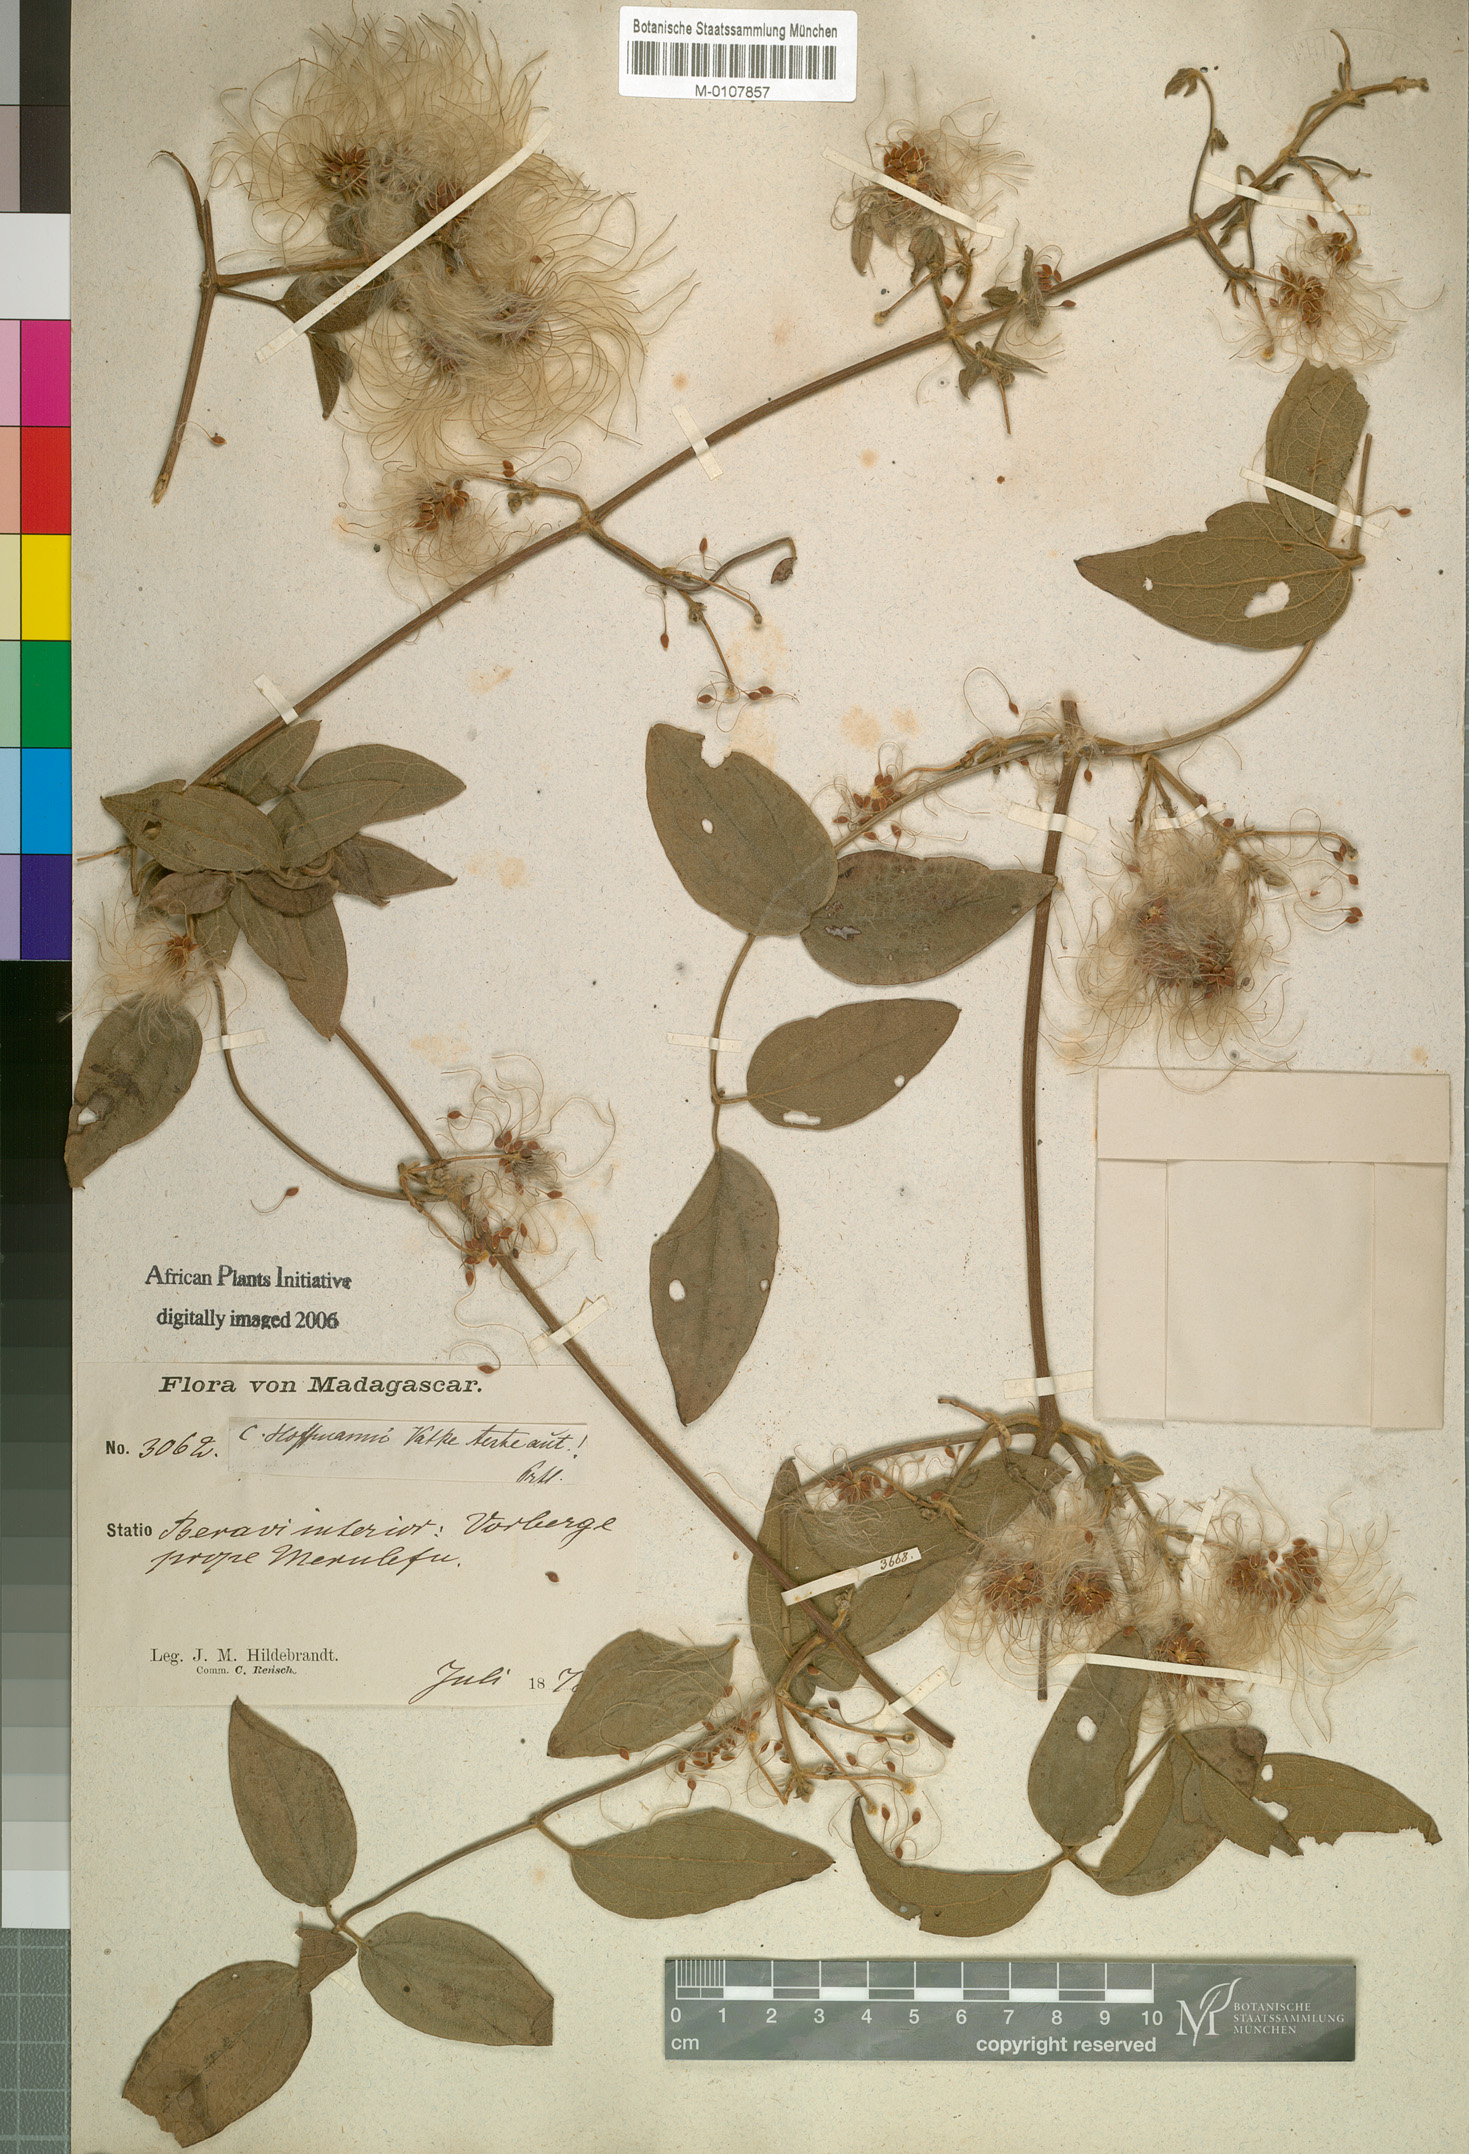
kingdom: Plantae
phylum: Tracheophyta
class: Magnoliopsida
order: Ranunculales
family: Ranunculaceae
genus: Clematis
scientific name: Clematis ibarensis
